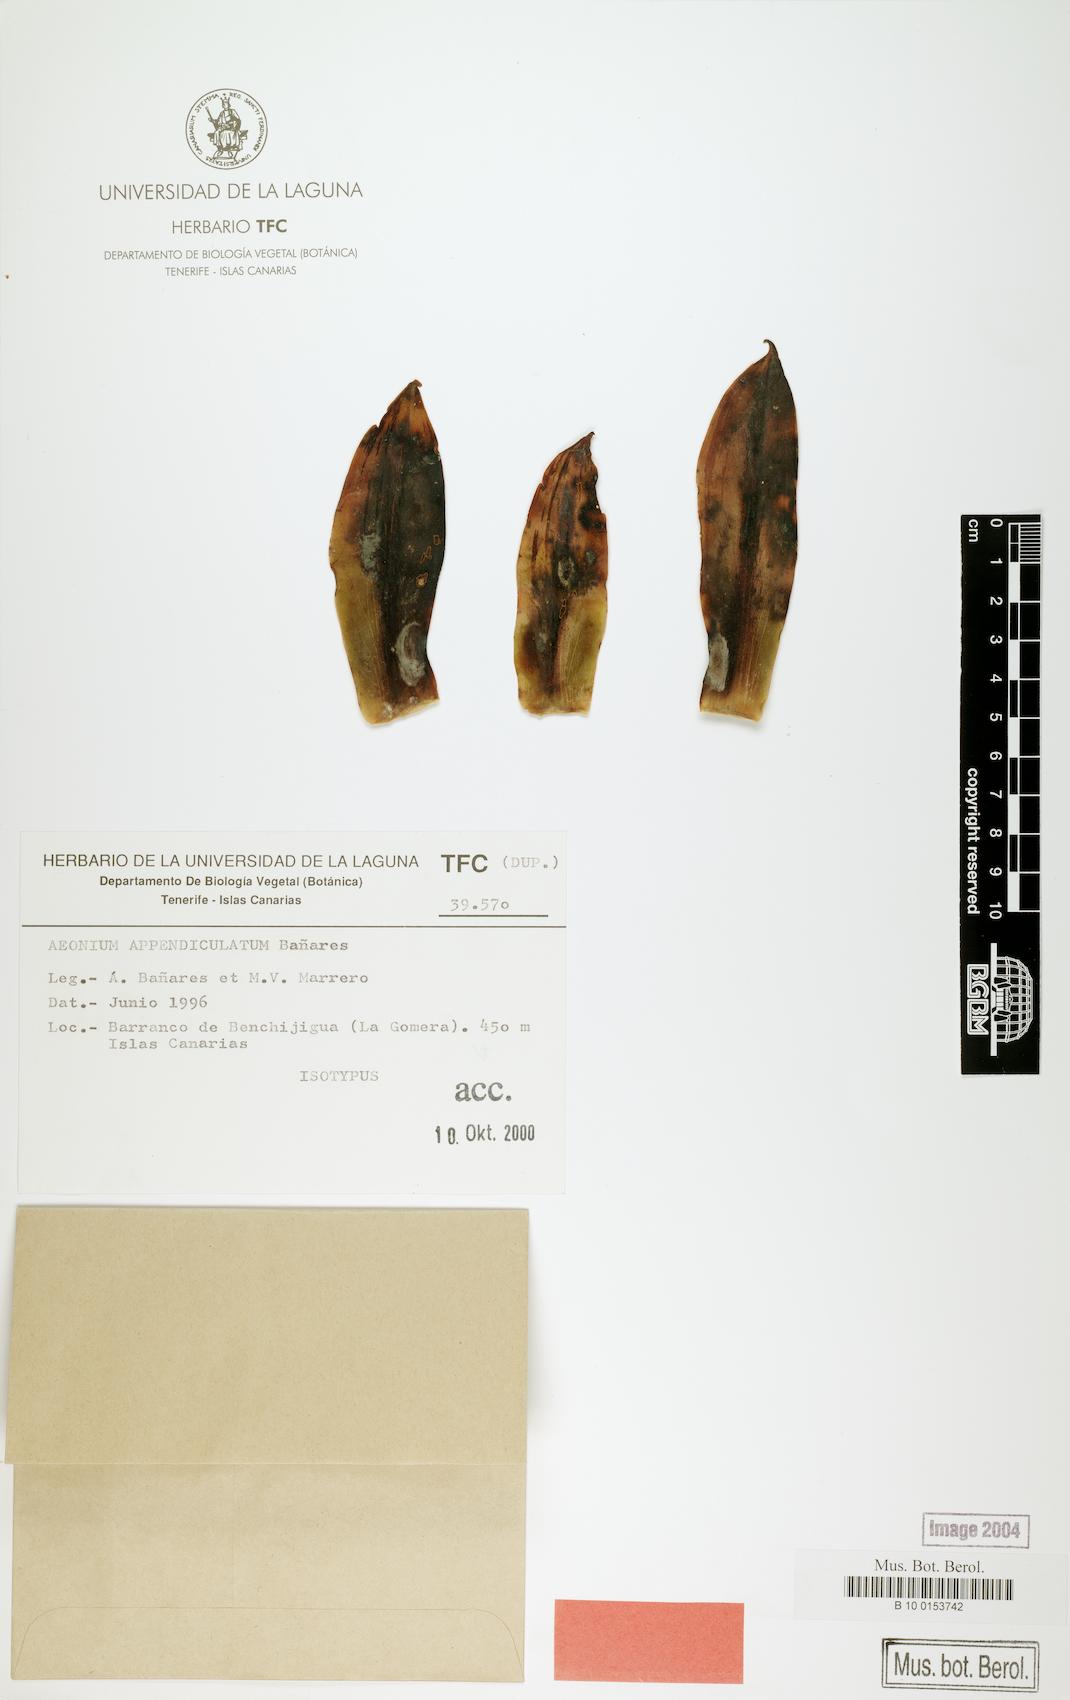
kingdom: Plantae
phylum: Tracheophyta
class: Magnoliopsida
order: Saxifragales
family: Crassulaceae
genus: Aeonium
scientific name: Aeonium appendiculatum
